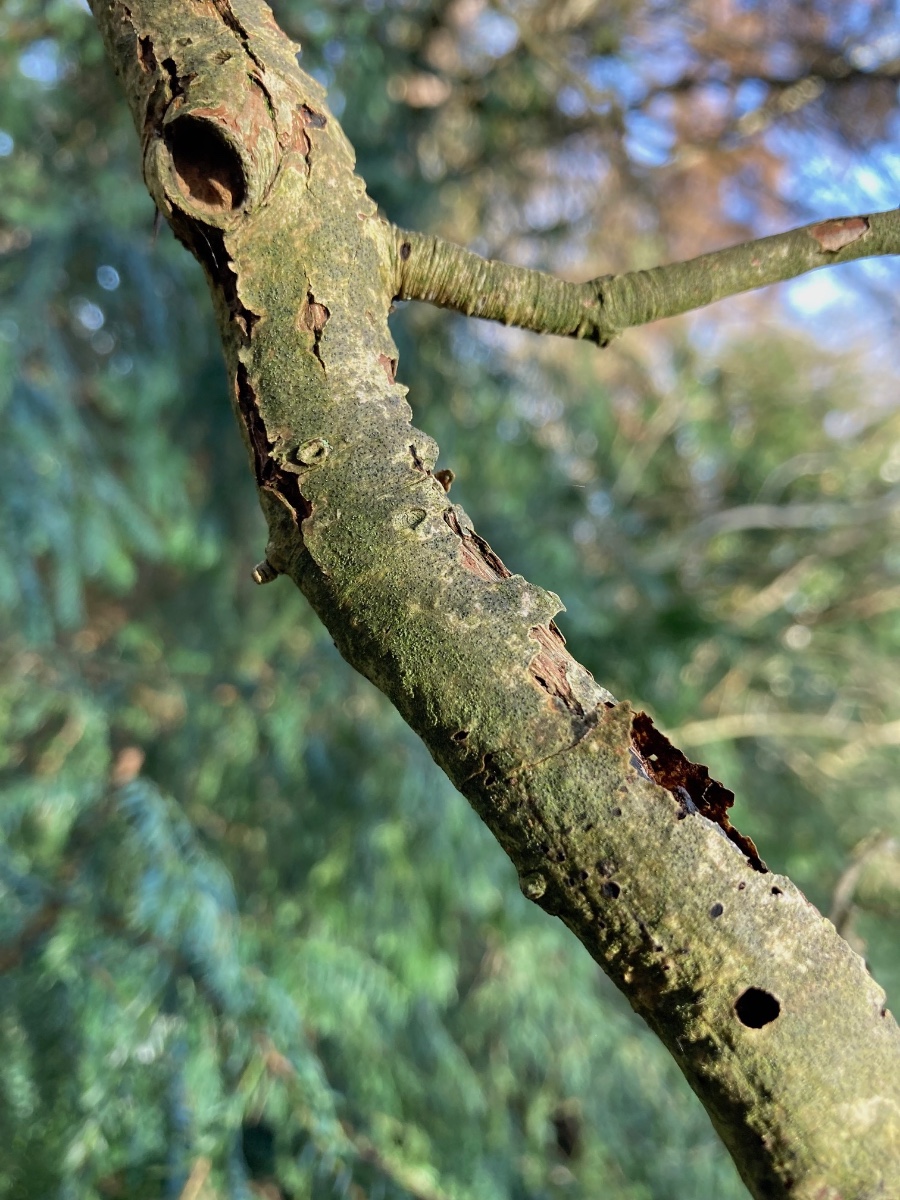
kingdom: Fungi
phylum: Ascomycota
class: Lecanoromycetes
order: Ostropales
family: Porinaceae
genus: Pseudosagedia
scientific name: Pseudosagedia aenea
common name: grønlig porina
